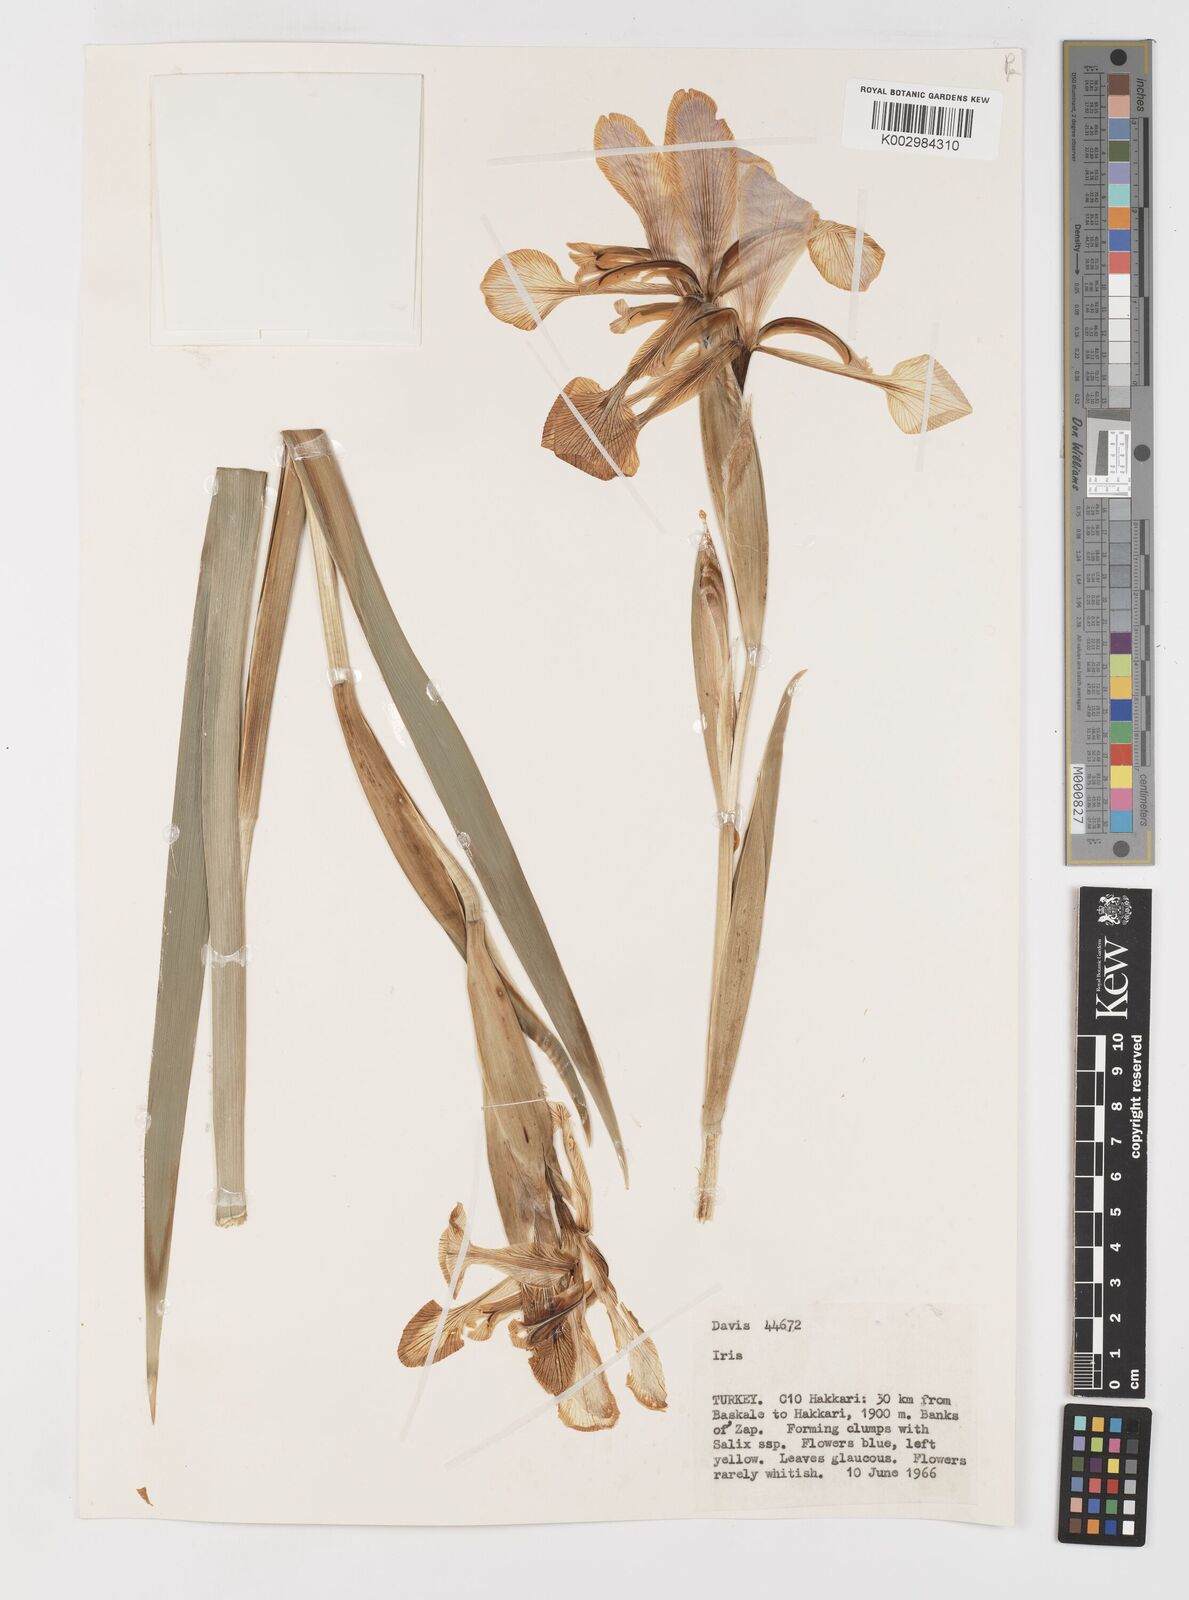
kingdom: Plantae
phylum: Tracheophyta
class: Liliopsida
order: Asparagales
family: Iridaceae
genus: Iris
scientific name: Iris spuria
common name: Blue iris
